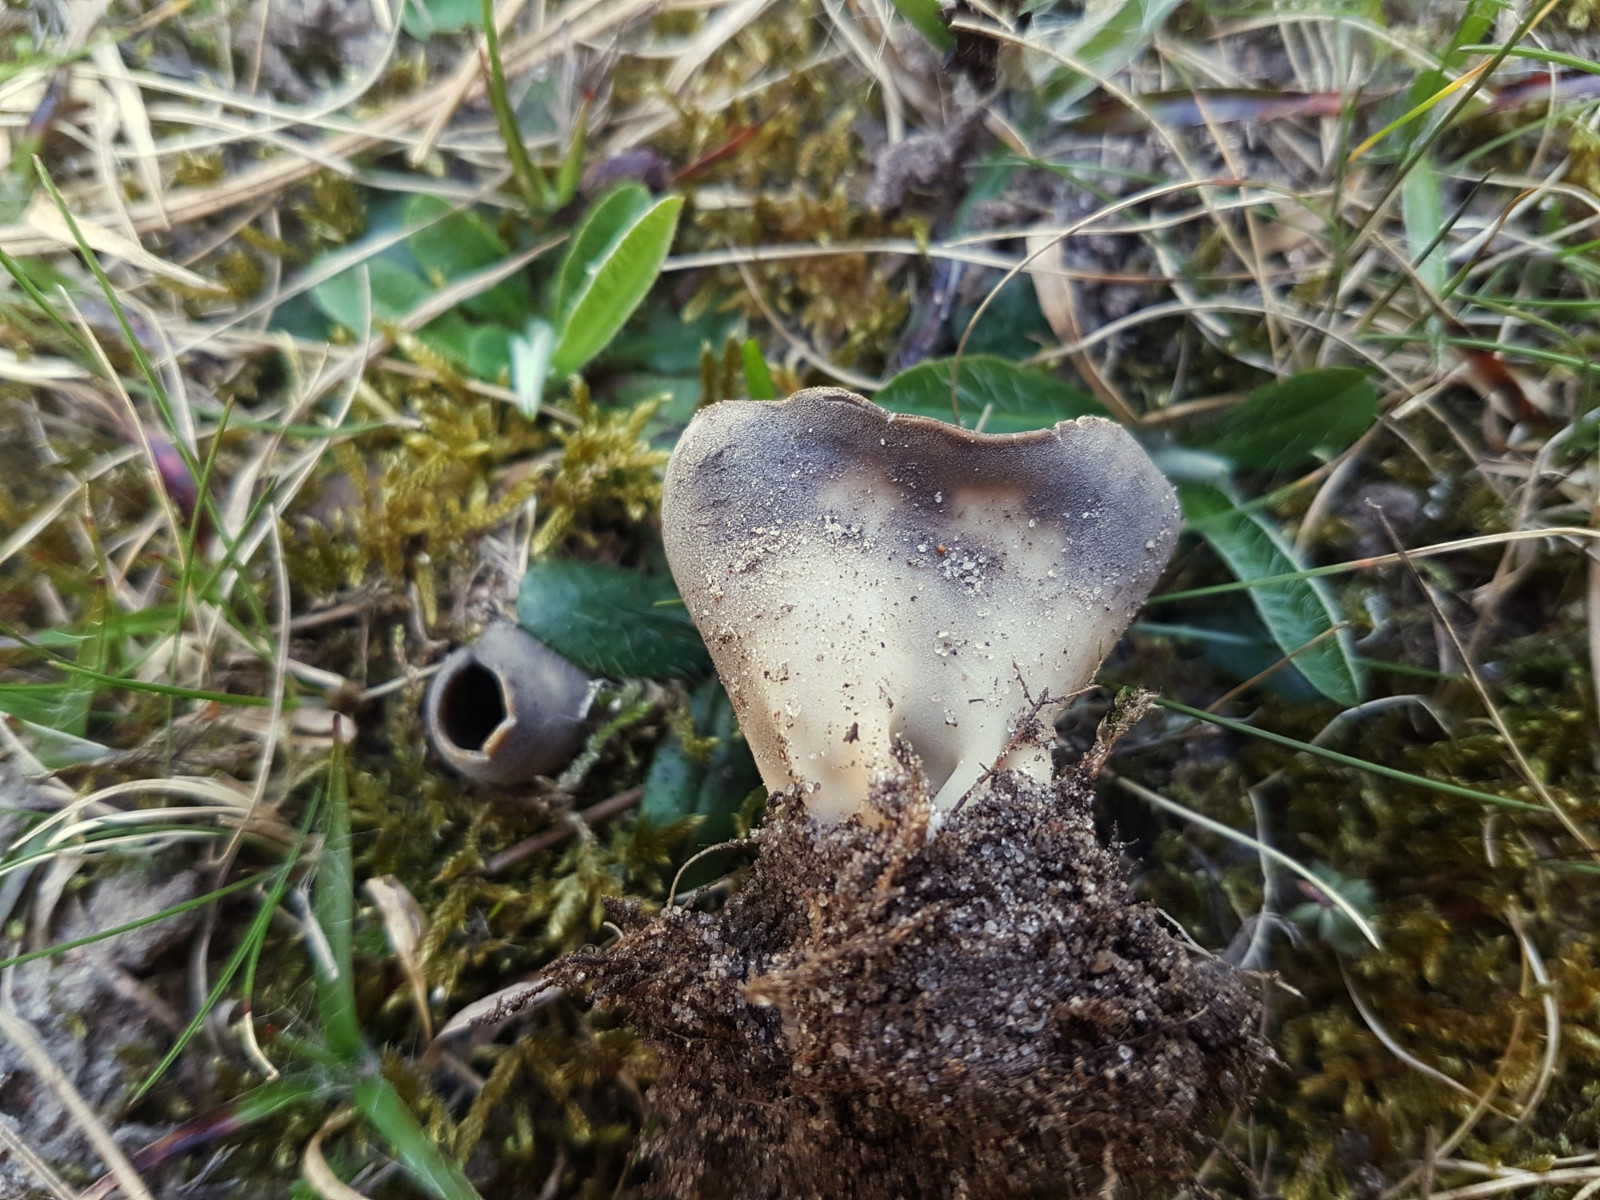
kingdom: Fungi
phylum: Ascomycota
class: Pezizomycetes
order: Pezizales
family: Helvellaceae
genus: Dissingia
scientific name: Dissingia leucomelaena
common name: sorthvid foldhat
